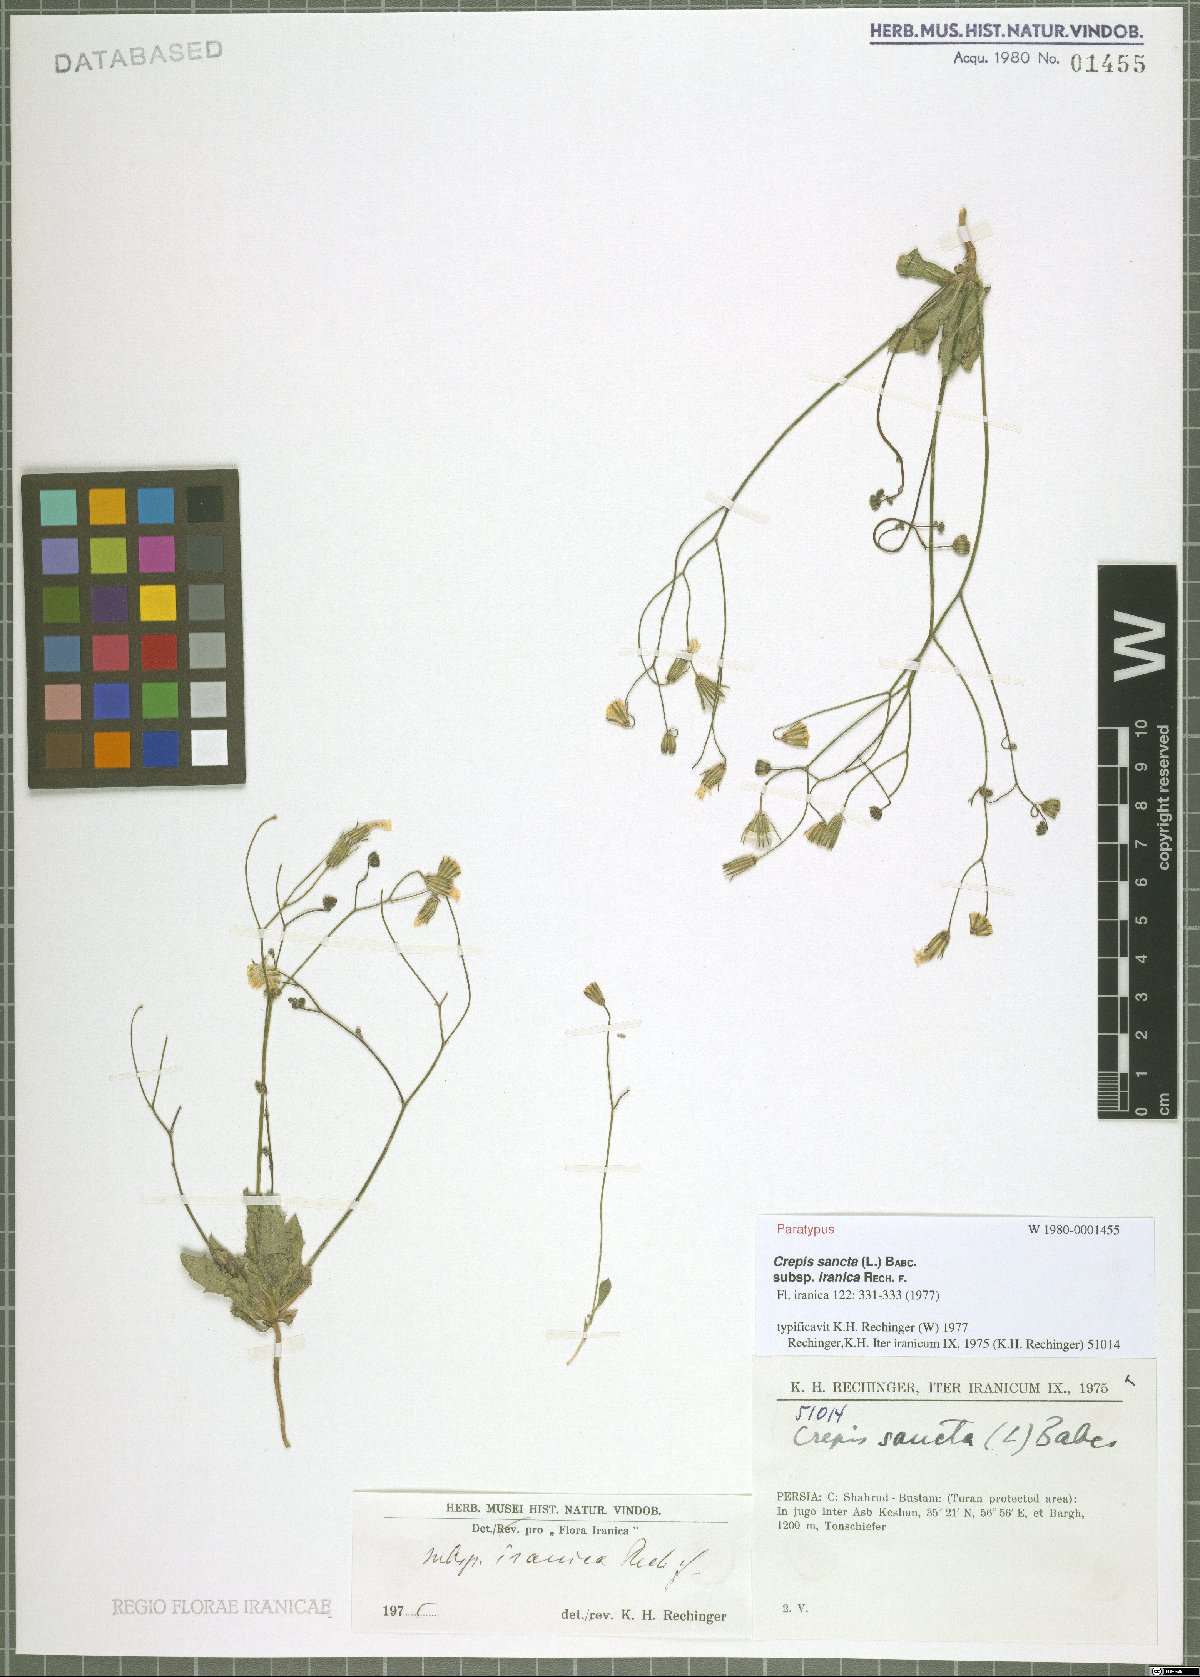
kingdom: Plantae
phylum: Tracheophyta
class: Magnoliopsida
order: Asterales
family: Asteraceae
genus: Crepis
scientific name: Crepis sancta
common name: Hawk's-beard
